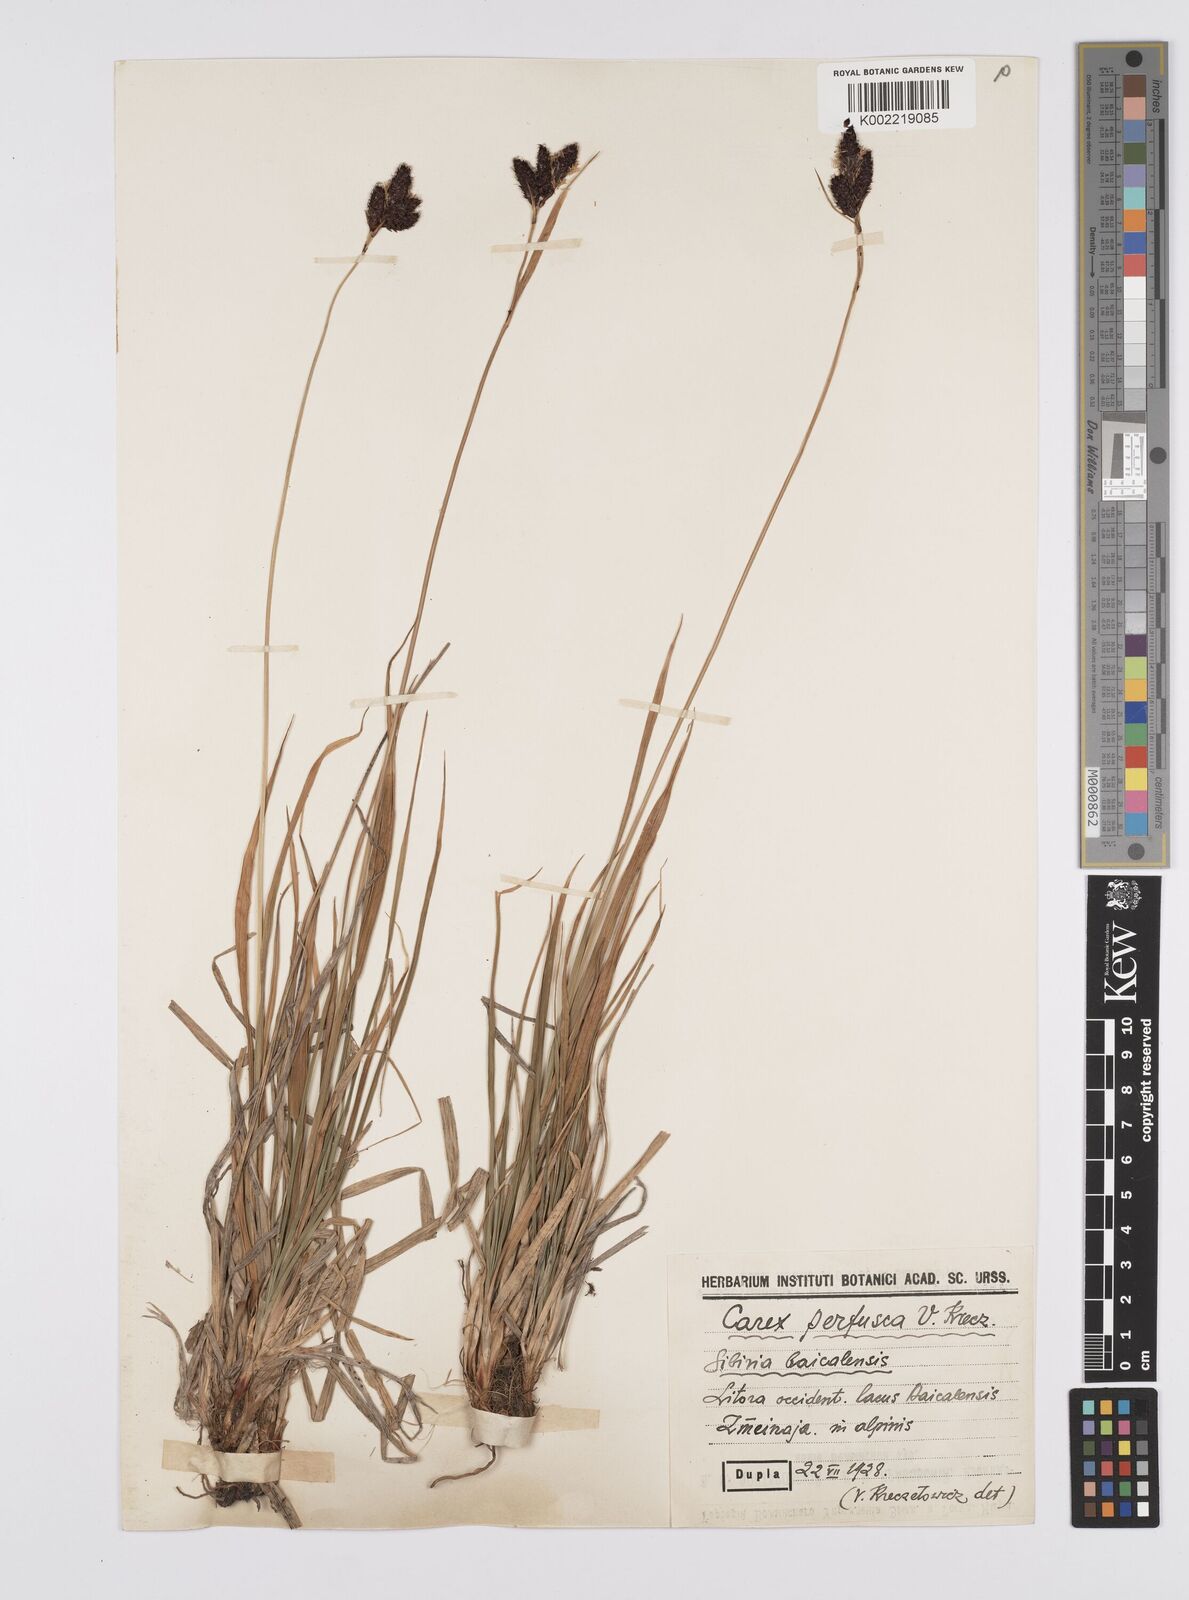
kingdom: Plantae
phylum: Tracheophyta
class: Liliopsida
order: Poales
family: Cyperaceae
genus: Carex
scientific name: Carex aterrima
